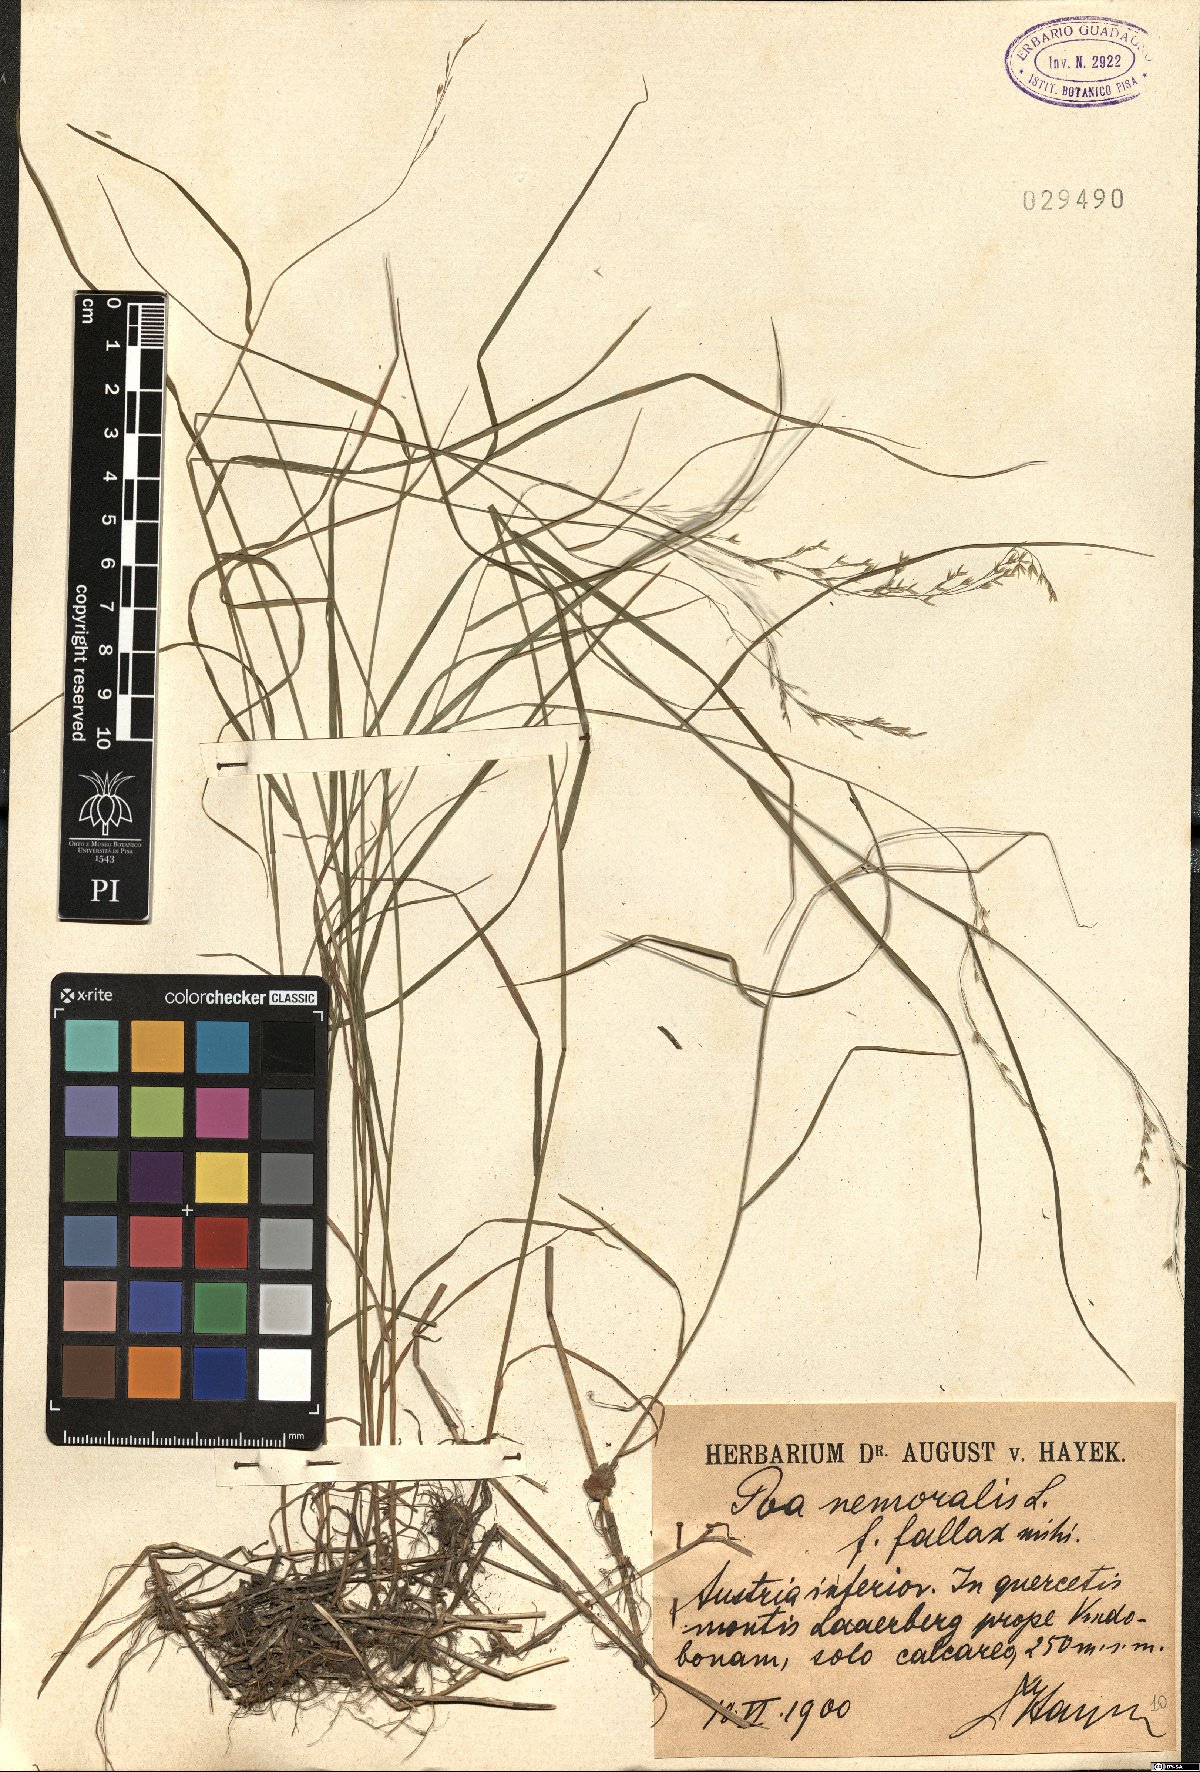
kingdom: Plantae
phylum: Tracheophyta
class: Liliopsida
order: Poales
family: Poaceae
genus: Poa
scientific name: Poa nemoralis
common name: Wood bluegrass
